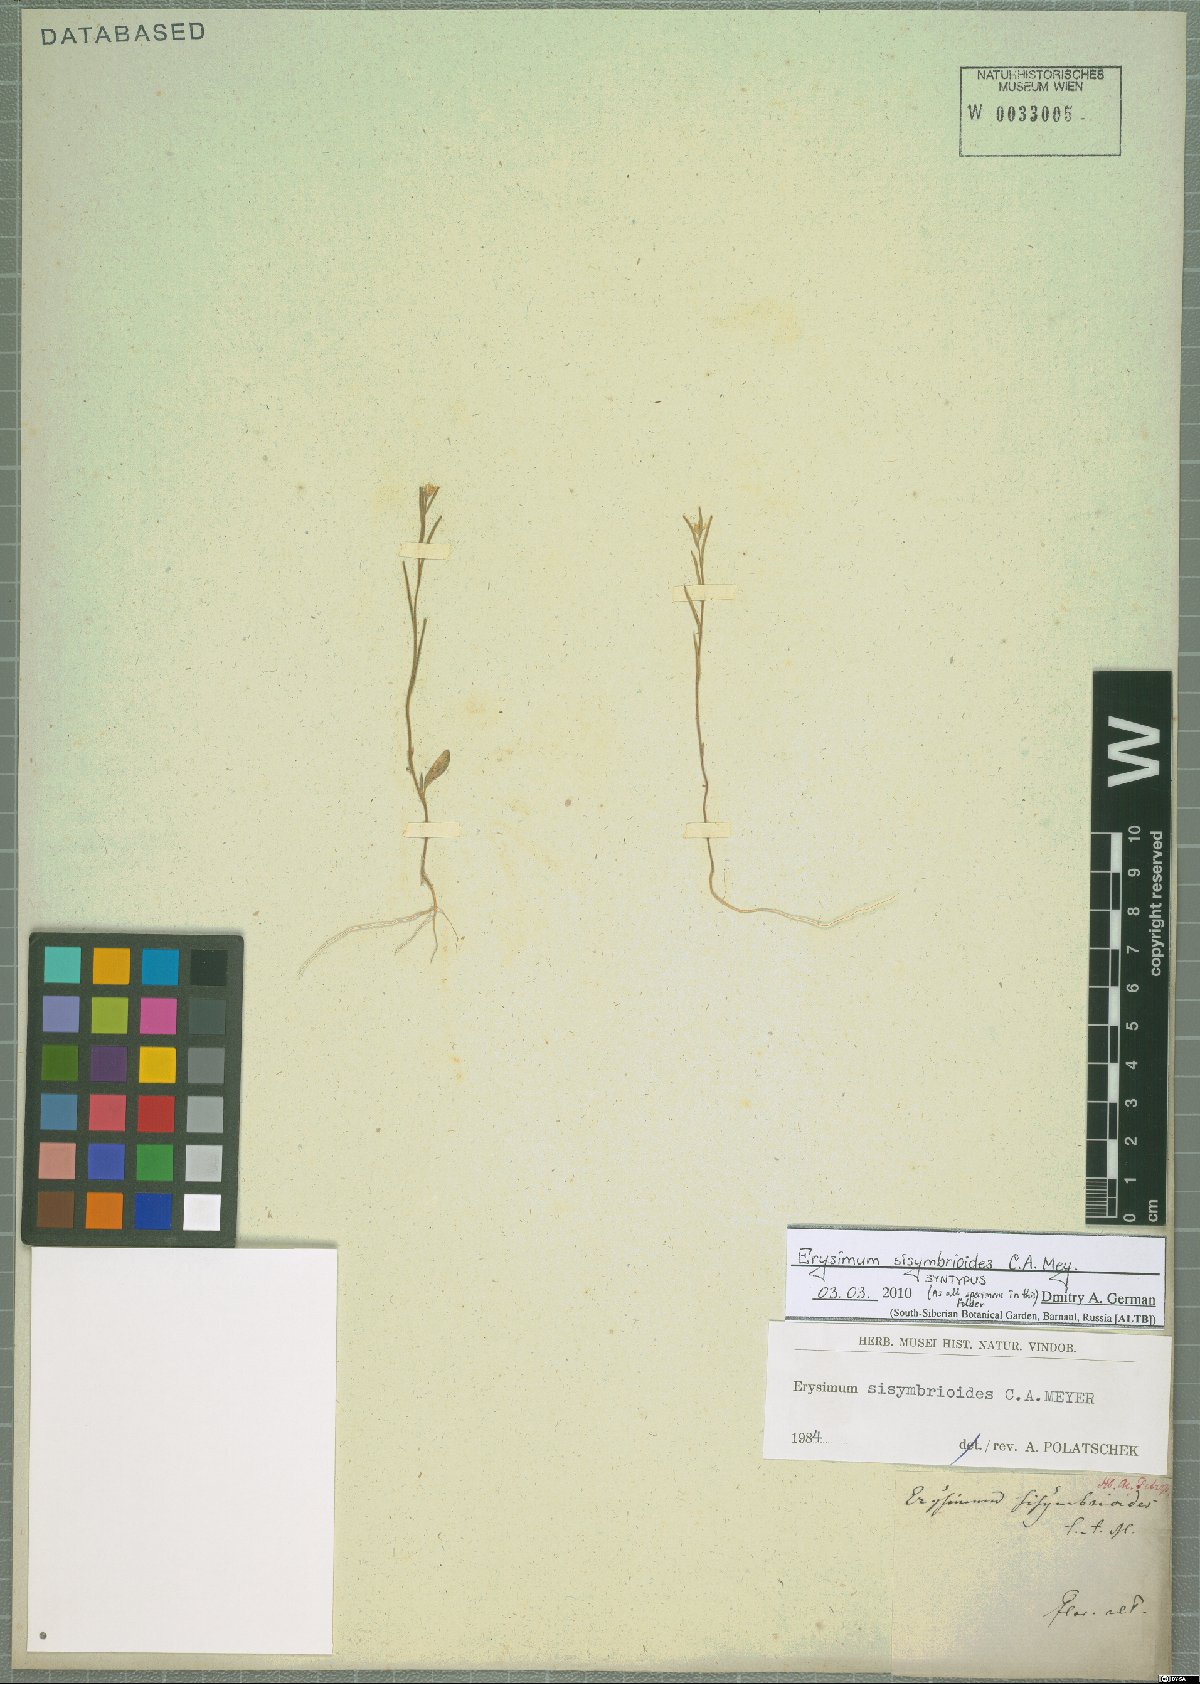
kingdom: Plantae
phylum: Tracheophyta
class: Magnoliopsida
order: Brassicales
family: Brassicaceae
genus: Erysimum
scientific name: Erysimum sisymbrioides
